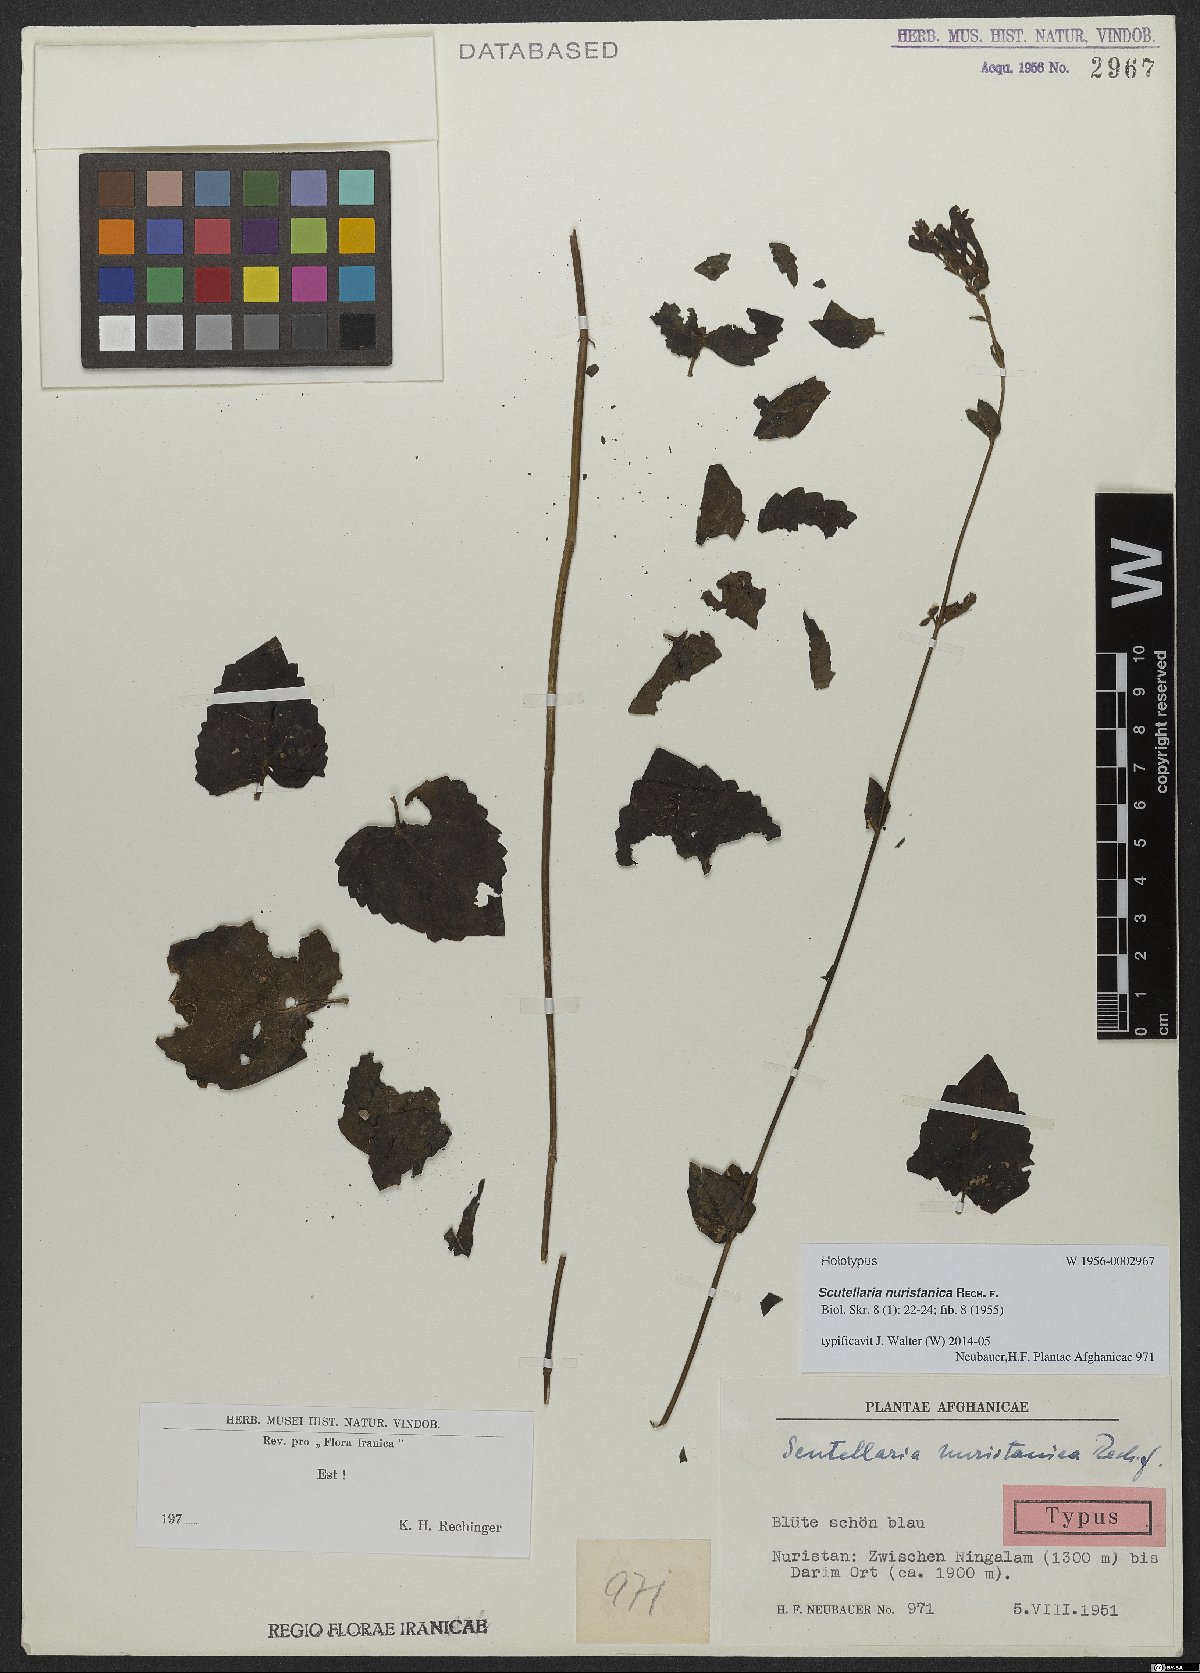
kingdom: Plantae
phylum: Tracheophyta
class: Magnoliopsida
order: Lamiales
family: Lamiaceae
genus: Scutellaria
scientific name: Scutellaria petiolata
